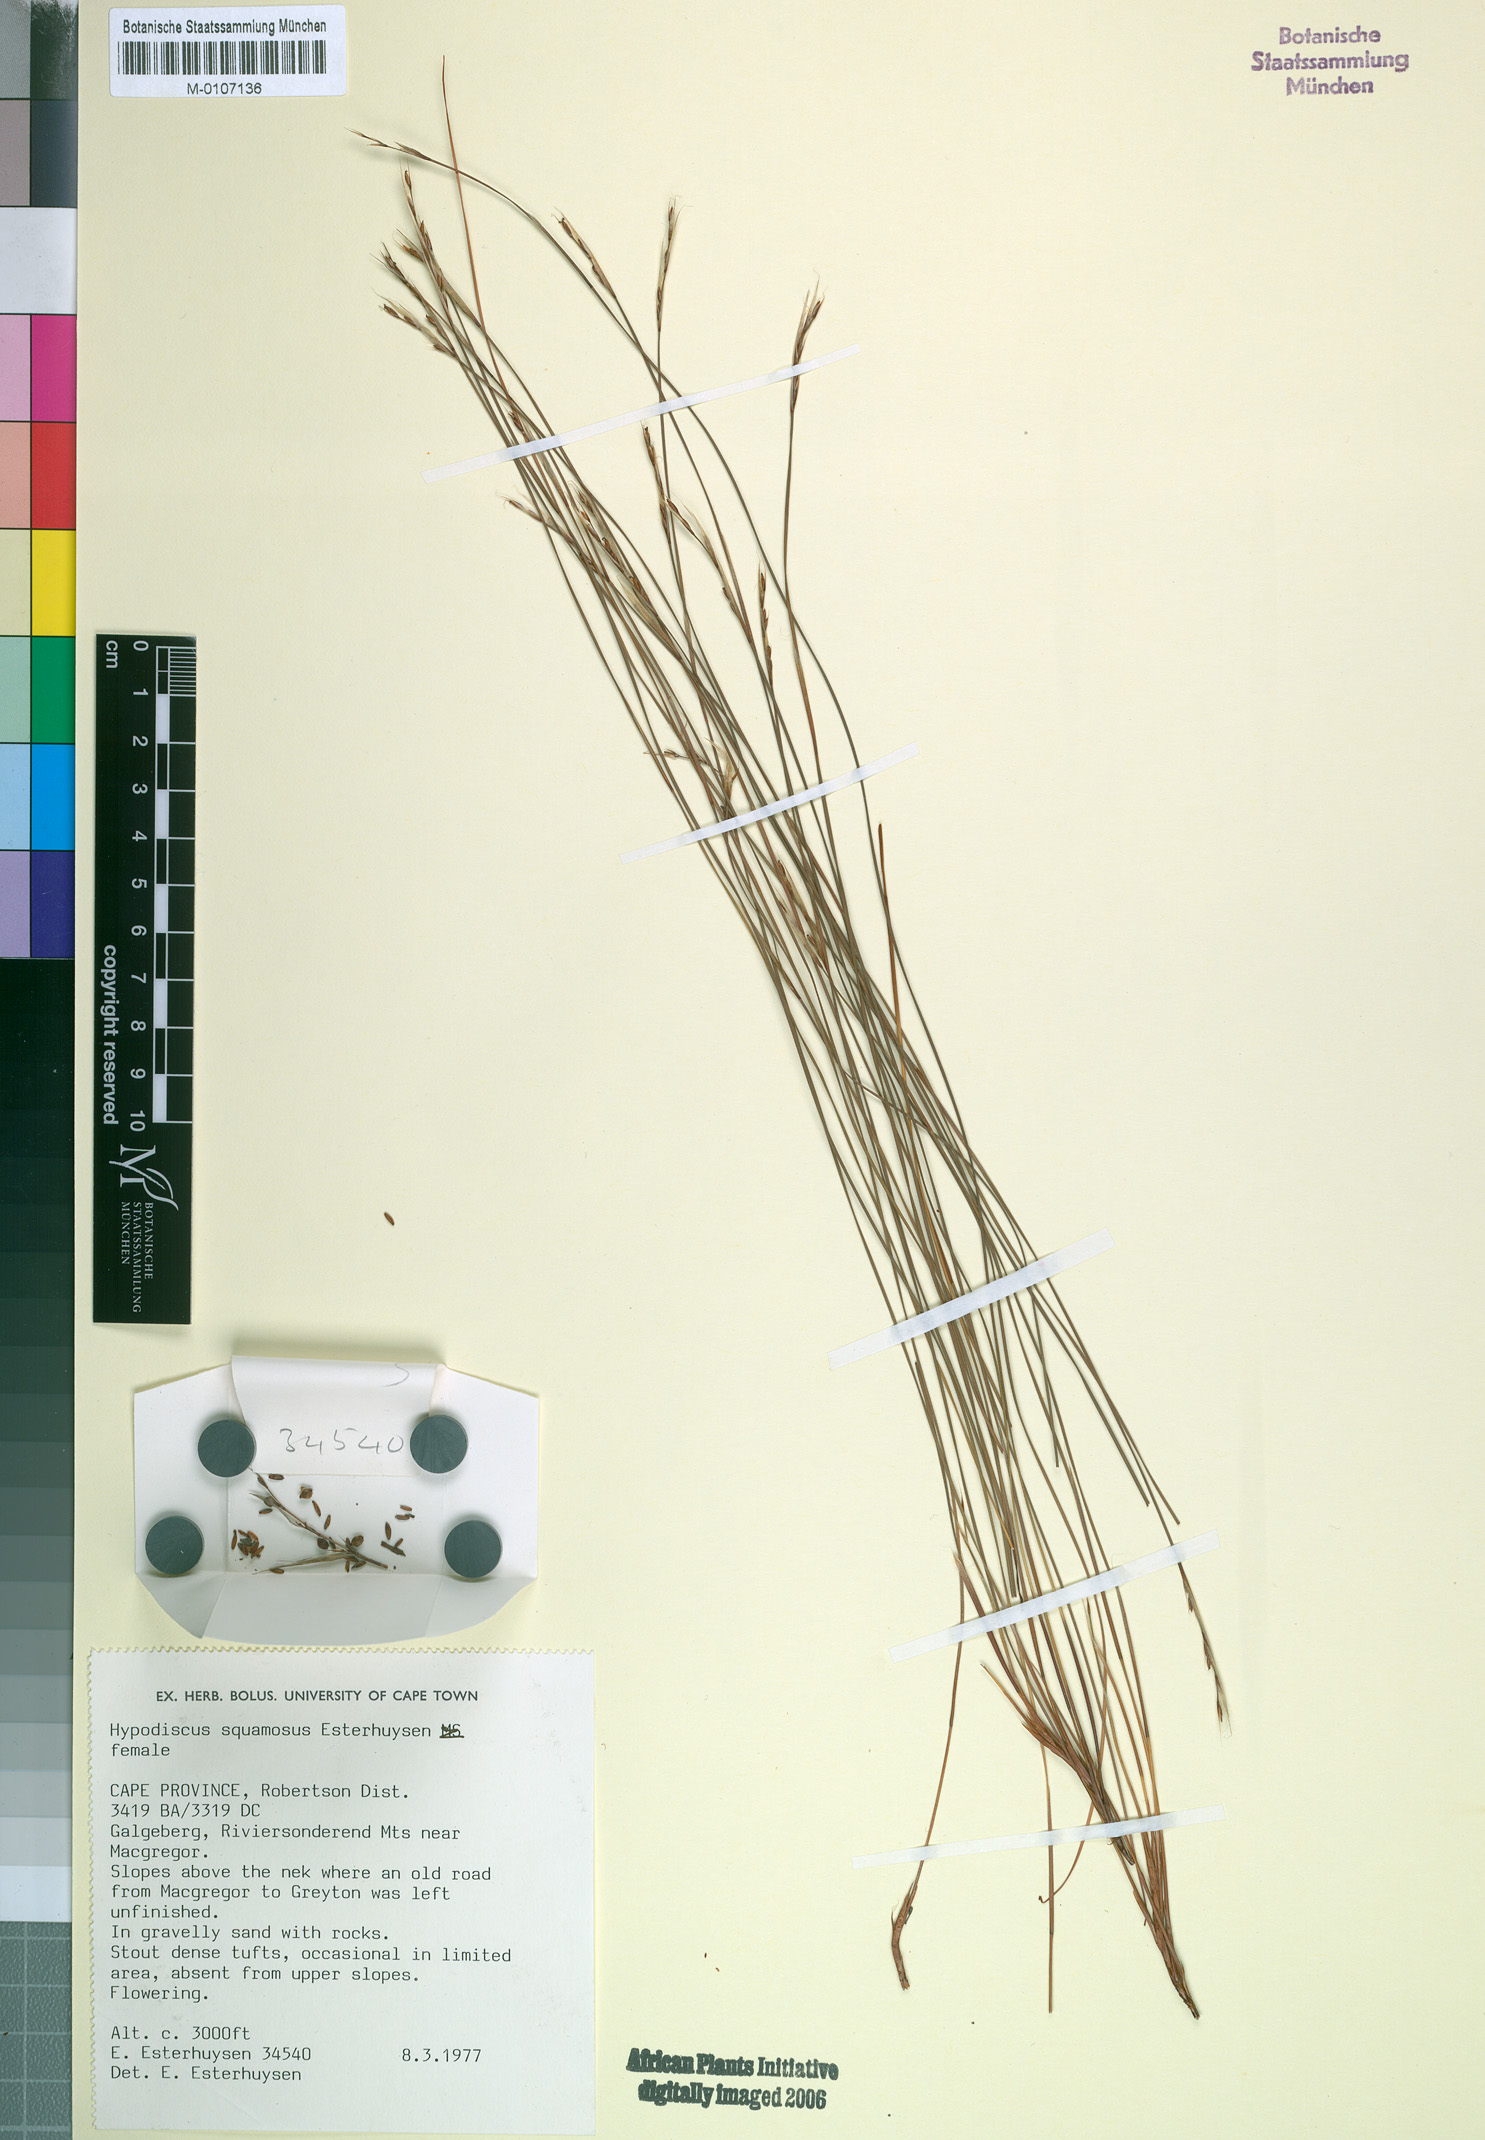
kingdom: Plantae
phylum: Tracheophyta
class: Liliopsida
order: Poales
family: Restionaceae
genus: Hypodiscus
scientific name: Hypodiscus squamosus
